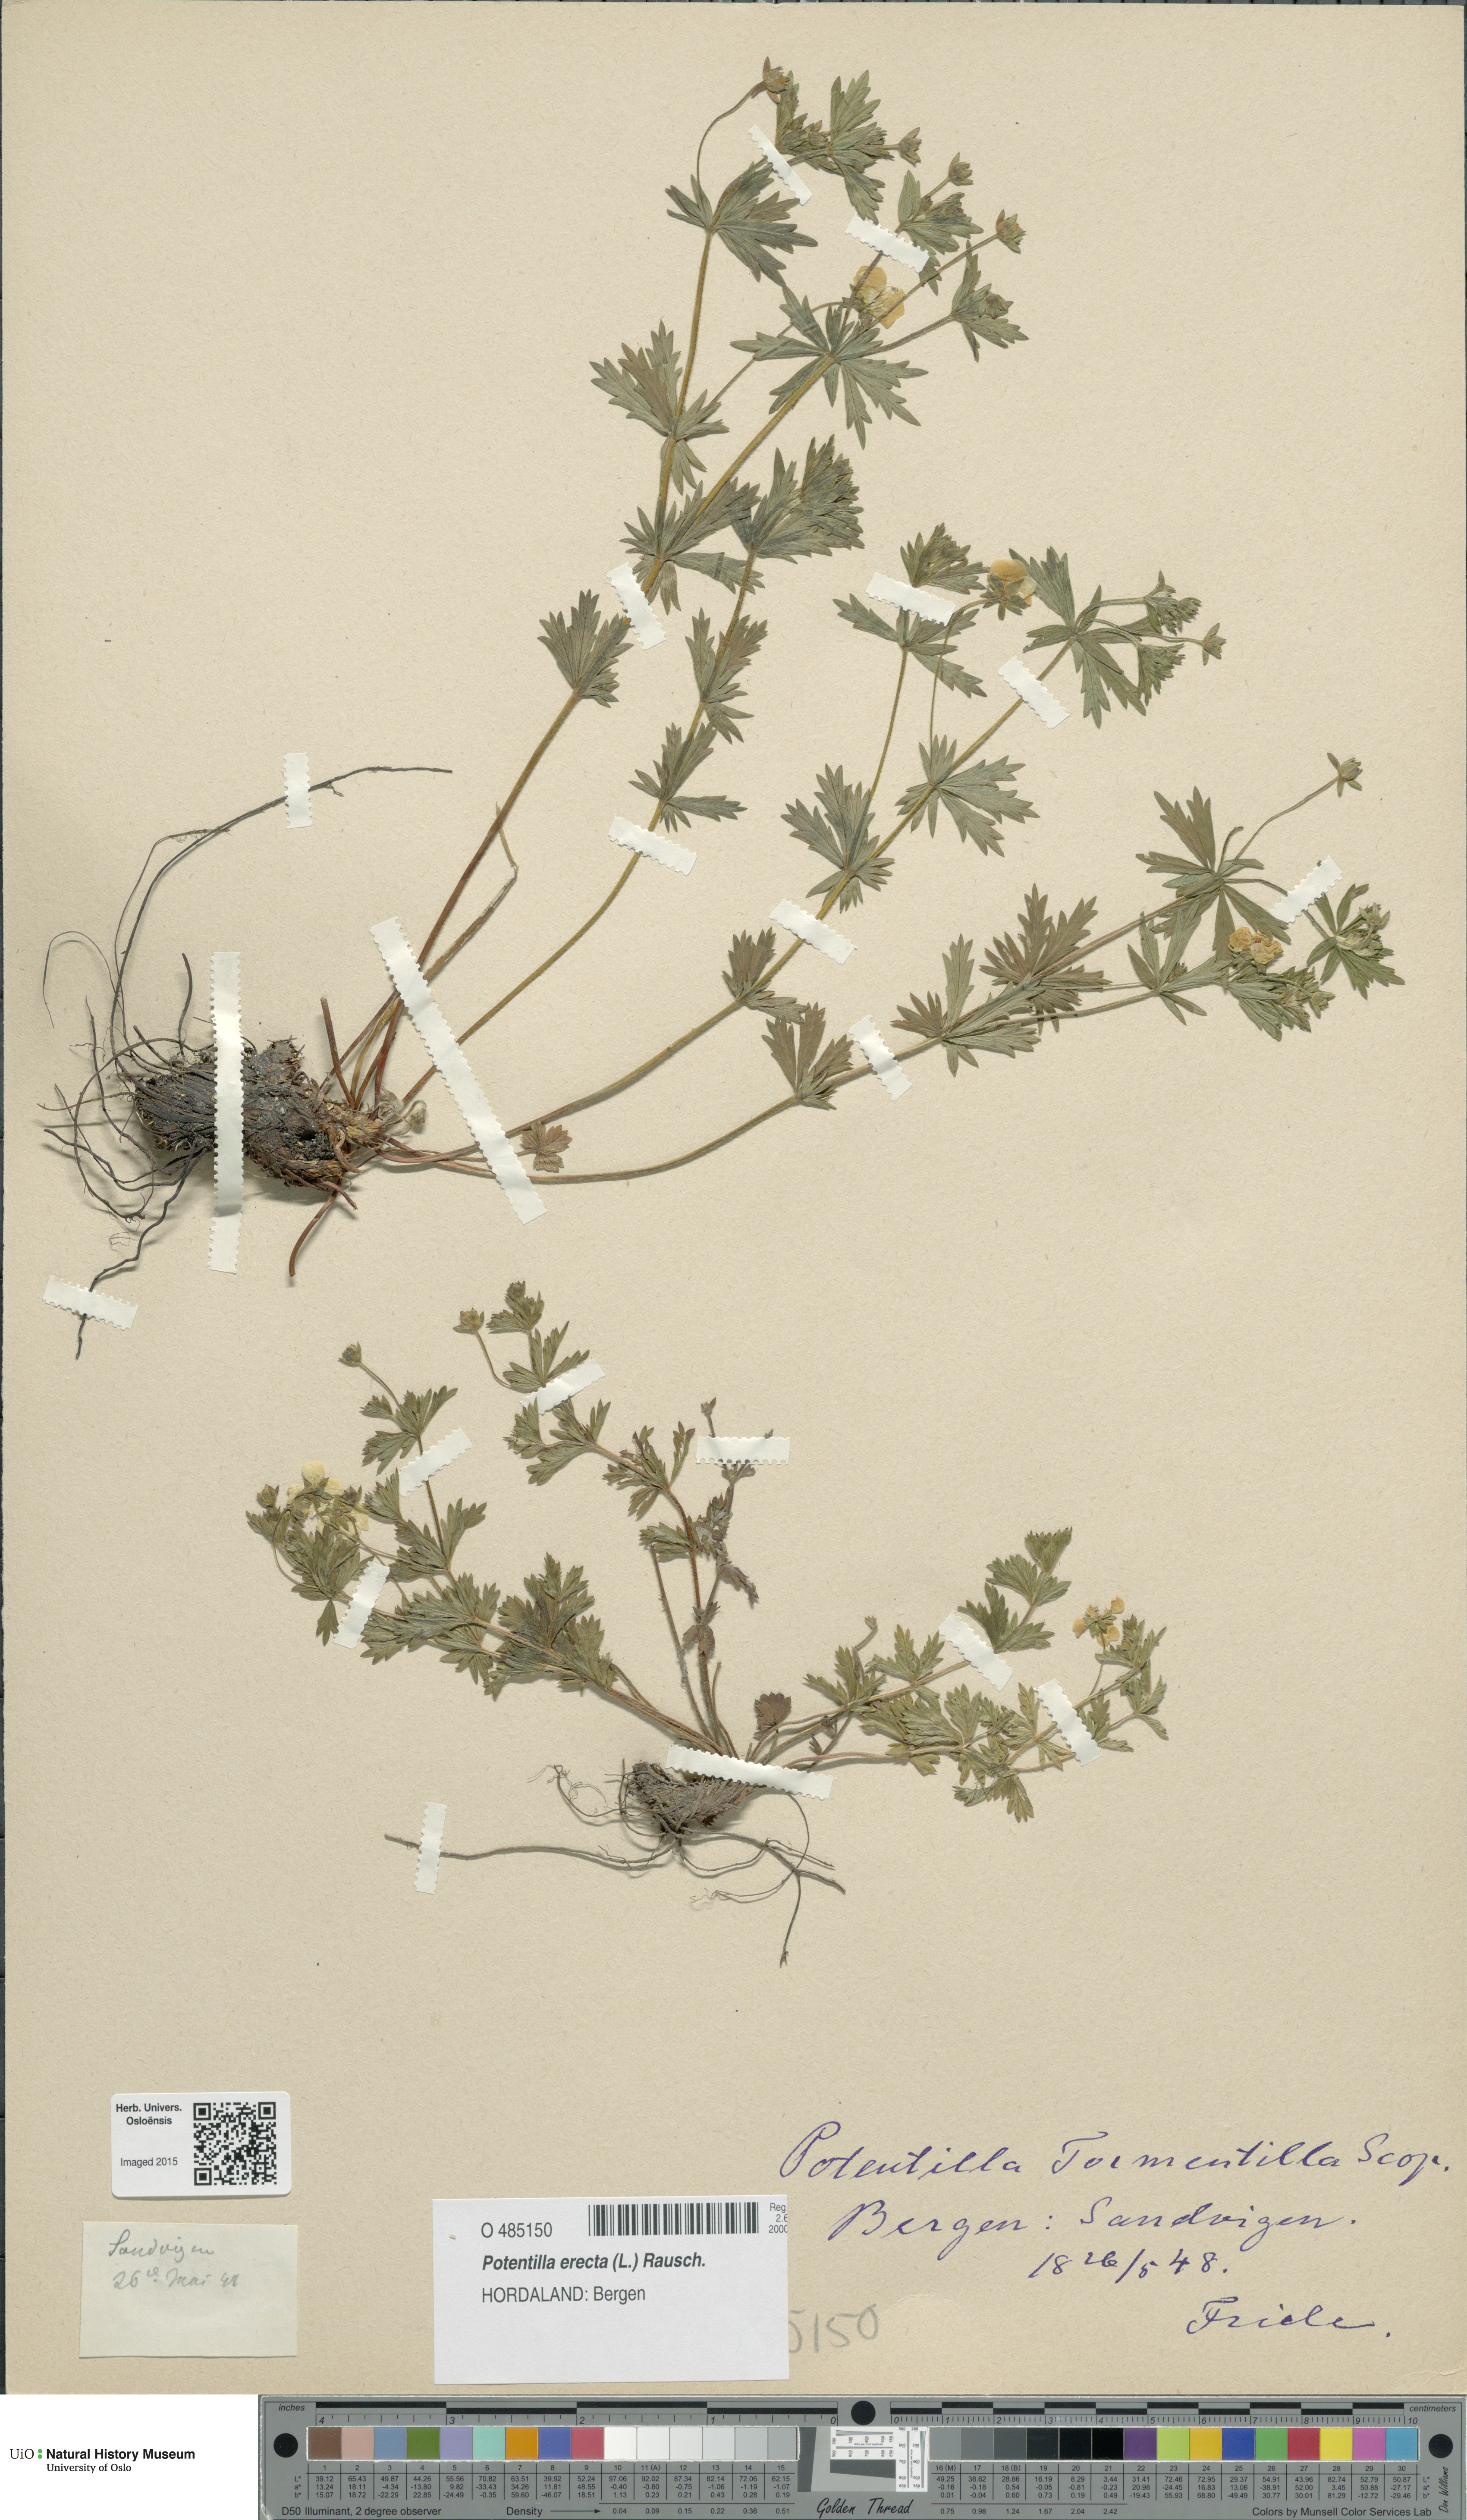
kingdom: Plantae
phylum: Tracheophyta
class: Magnoliopsida
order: Rosales
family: Rosaceae
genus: Potentilla
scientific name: Potentilla erecta
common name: Tormentil
